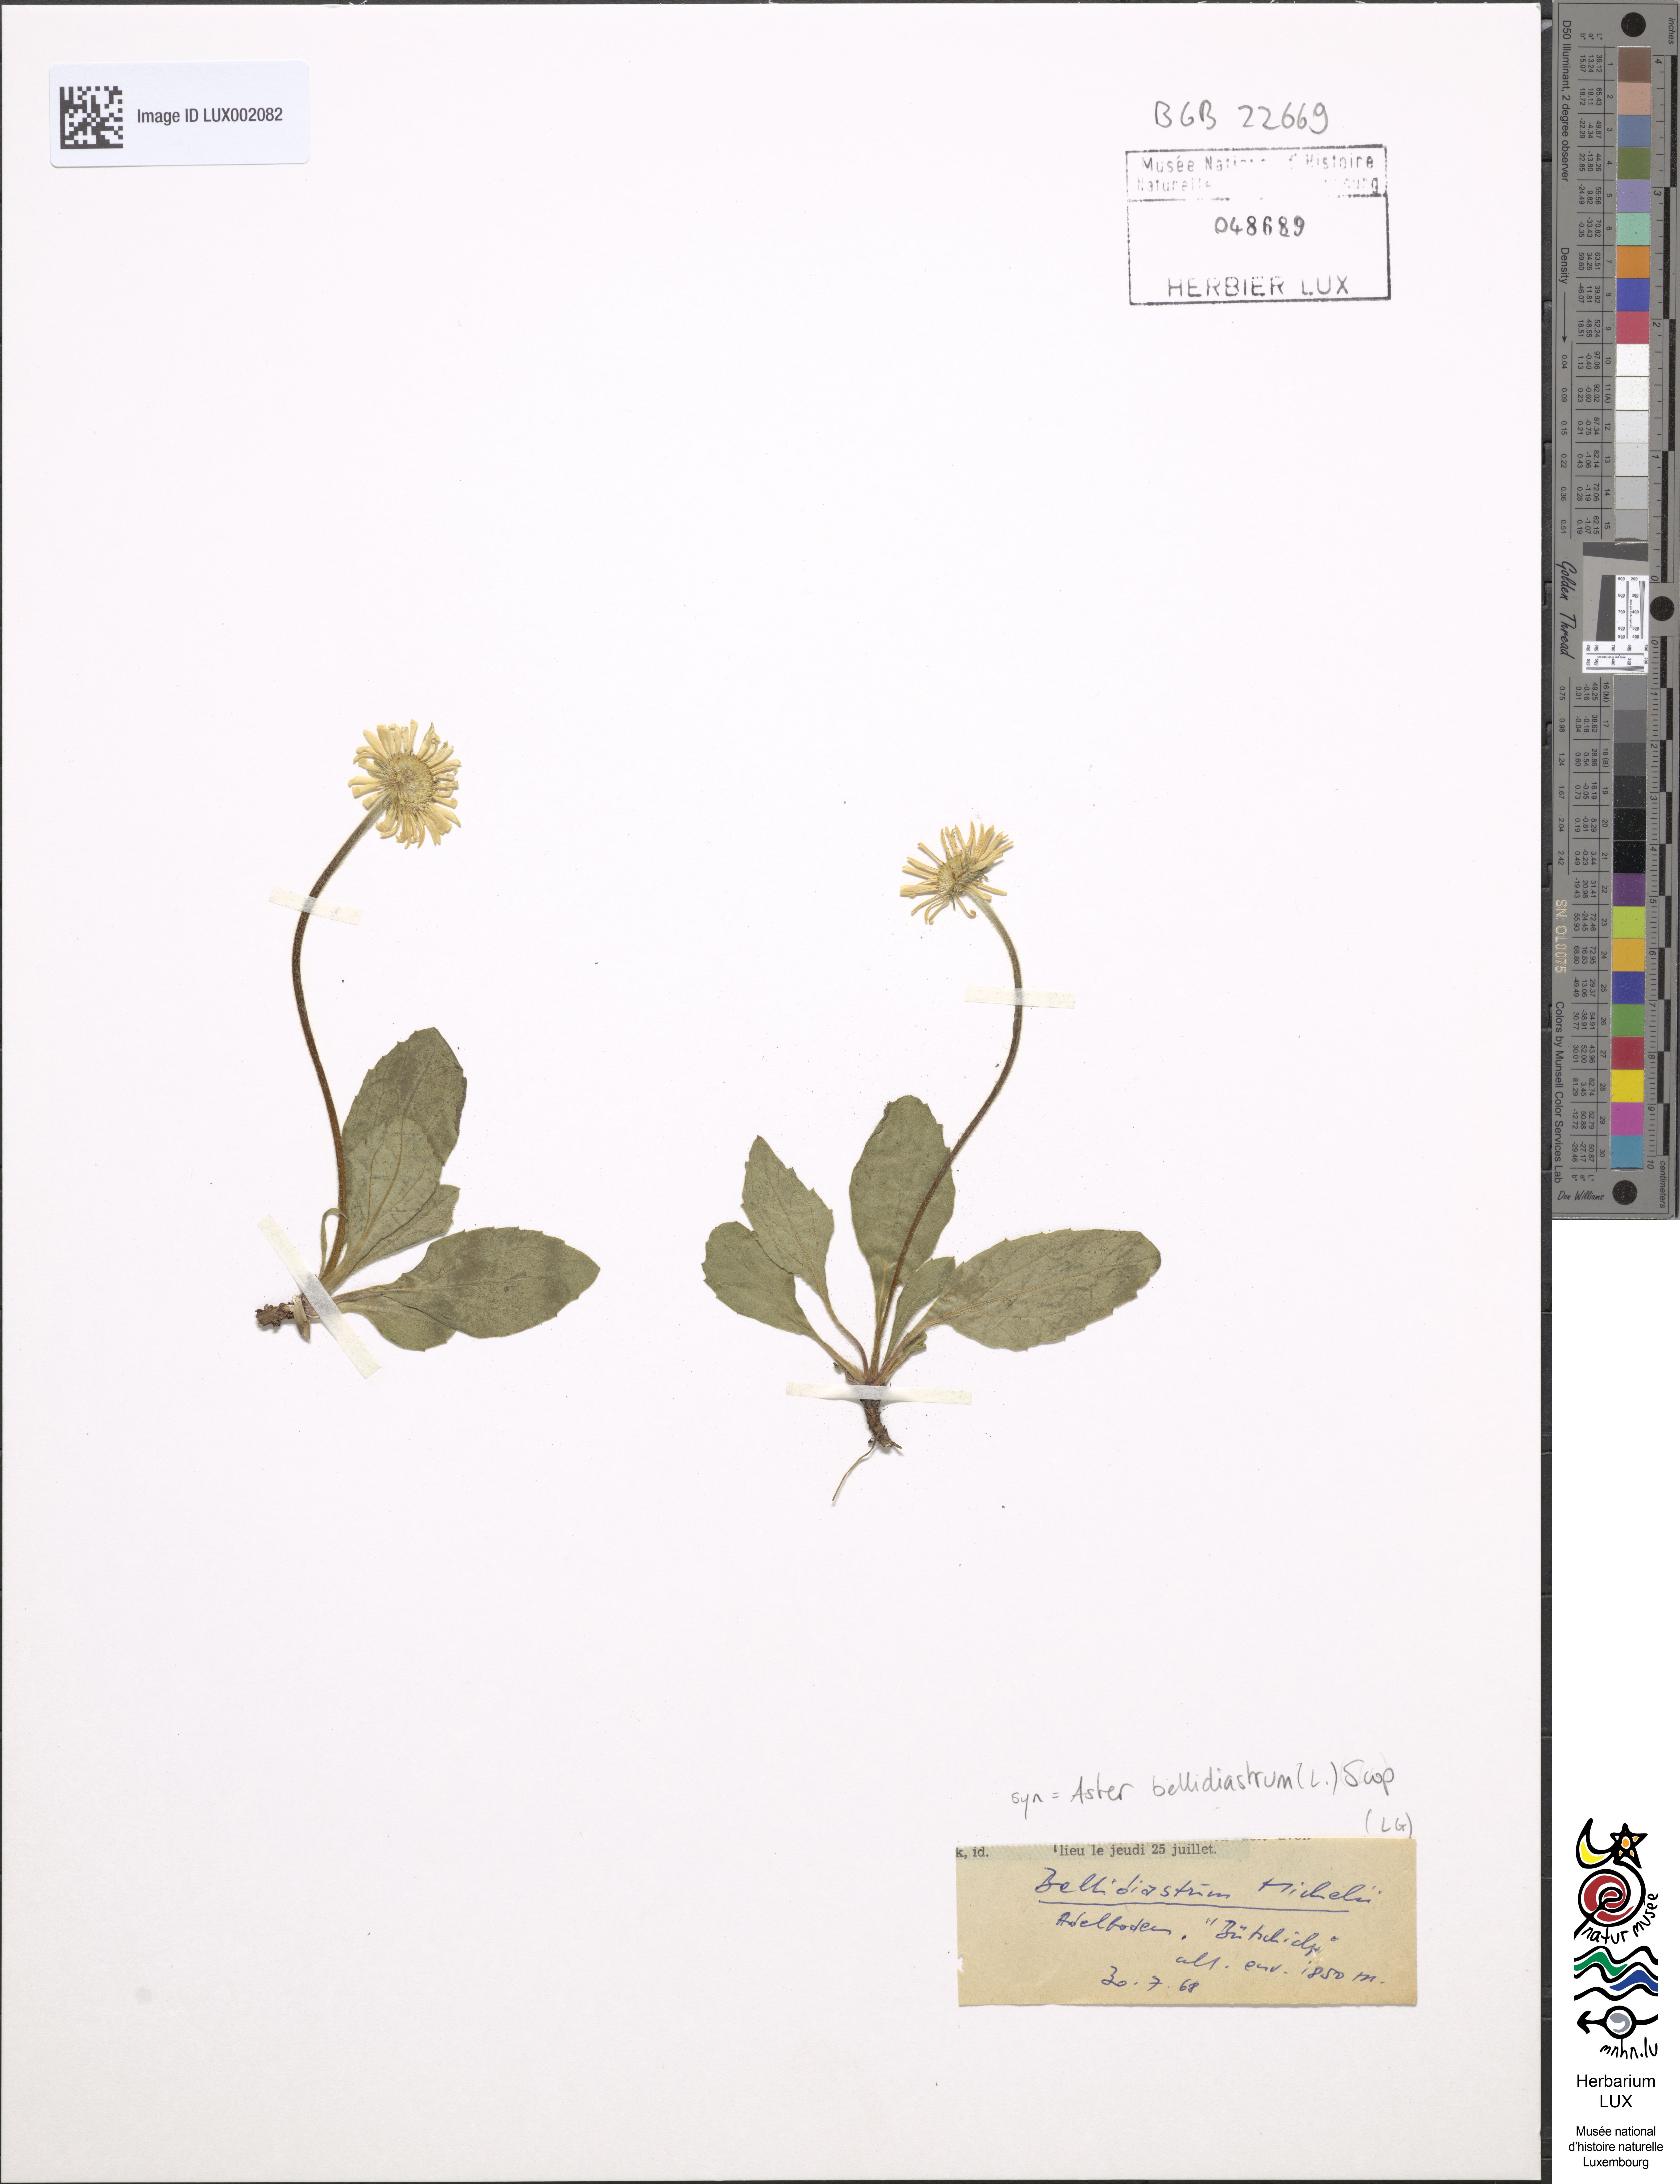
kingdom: Plantae
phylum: Tracheophyta
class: Magnoliopsida
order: Asterales
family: Asteraceae
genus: Bellidiastrum
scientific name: Bellidiastrum michelii
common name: Daisy-star aster
